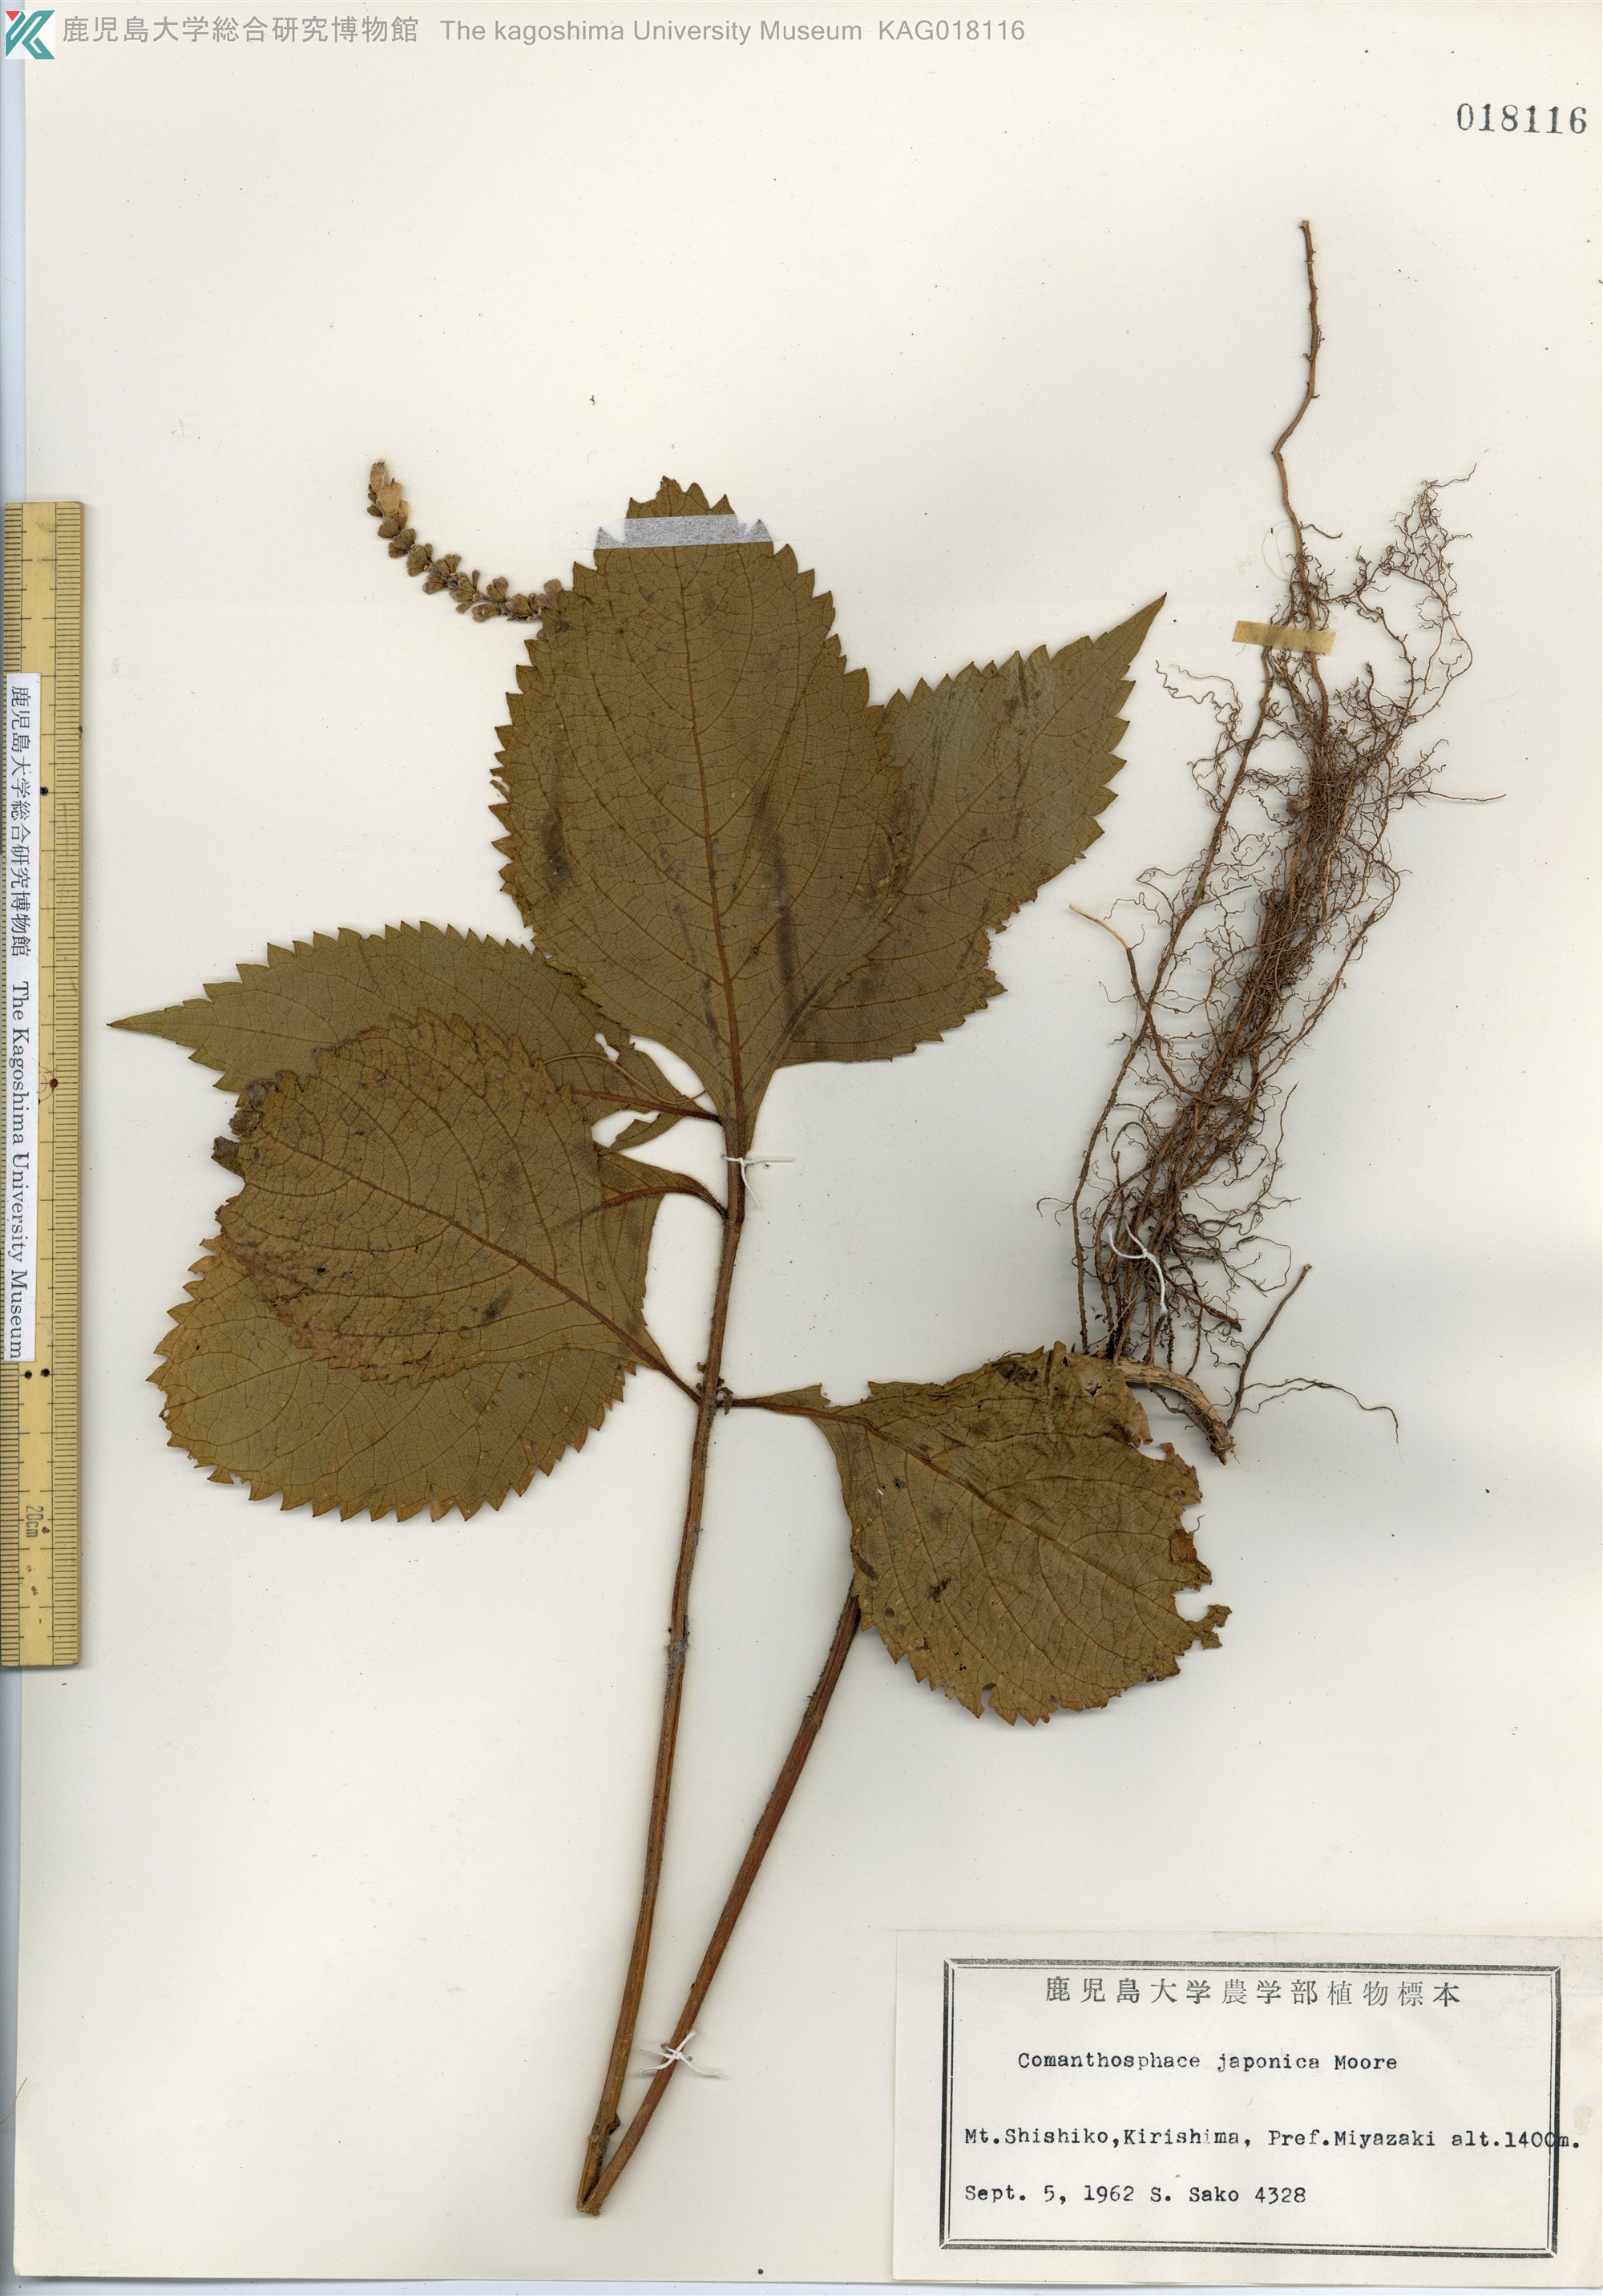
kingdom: Plantae
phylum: Tracheophyta
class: Magnoliopsida
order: Lamiales
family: Lamiaceae
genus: Comanthosphace
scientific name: Comanthosphace japonica
